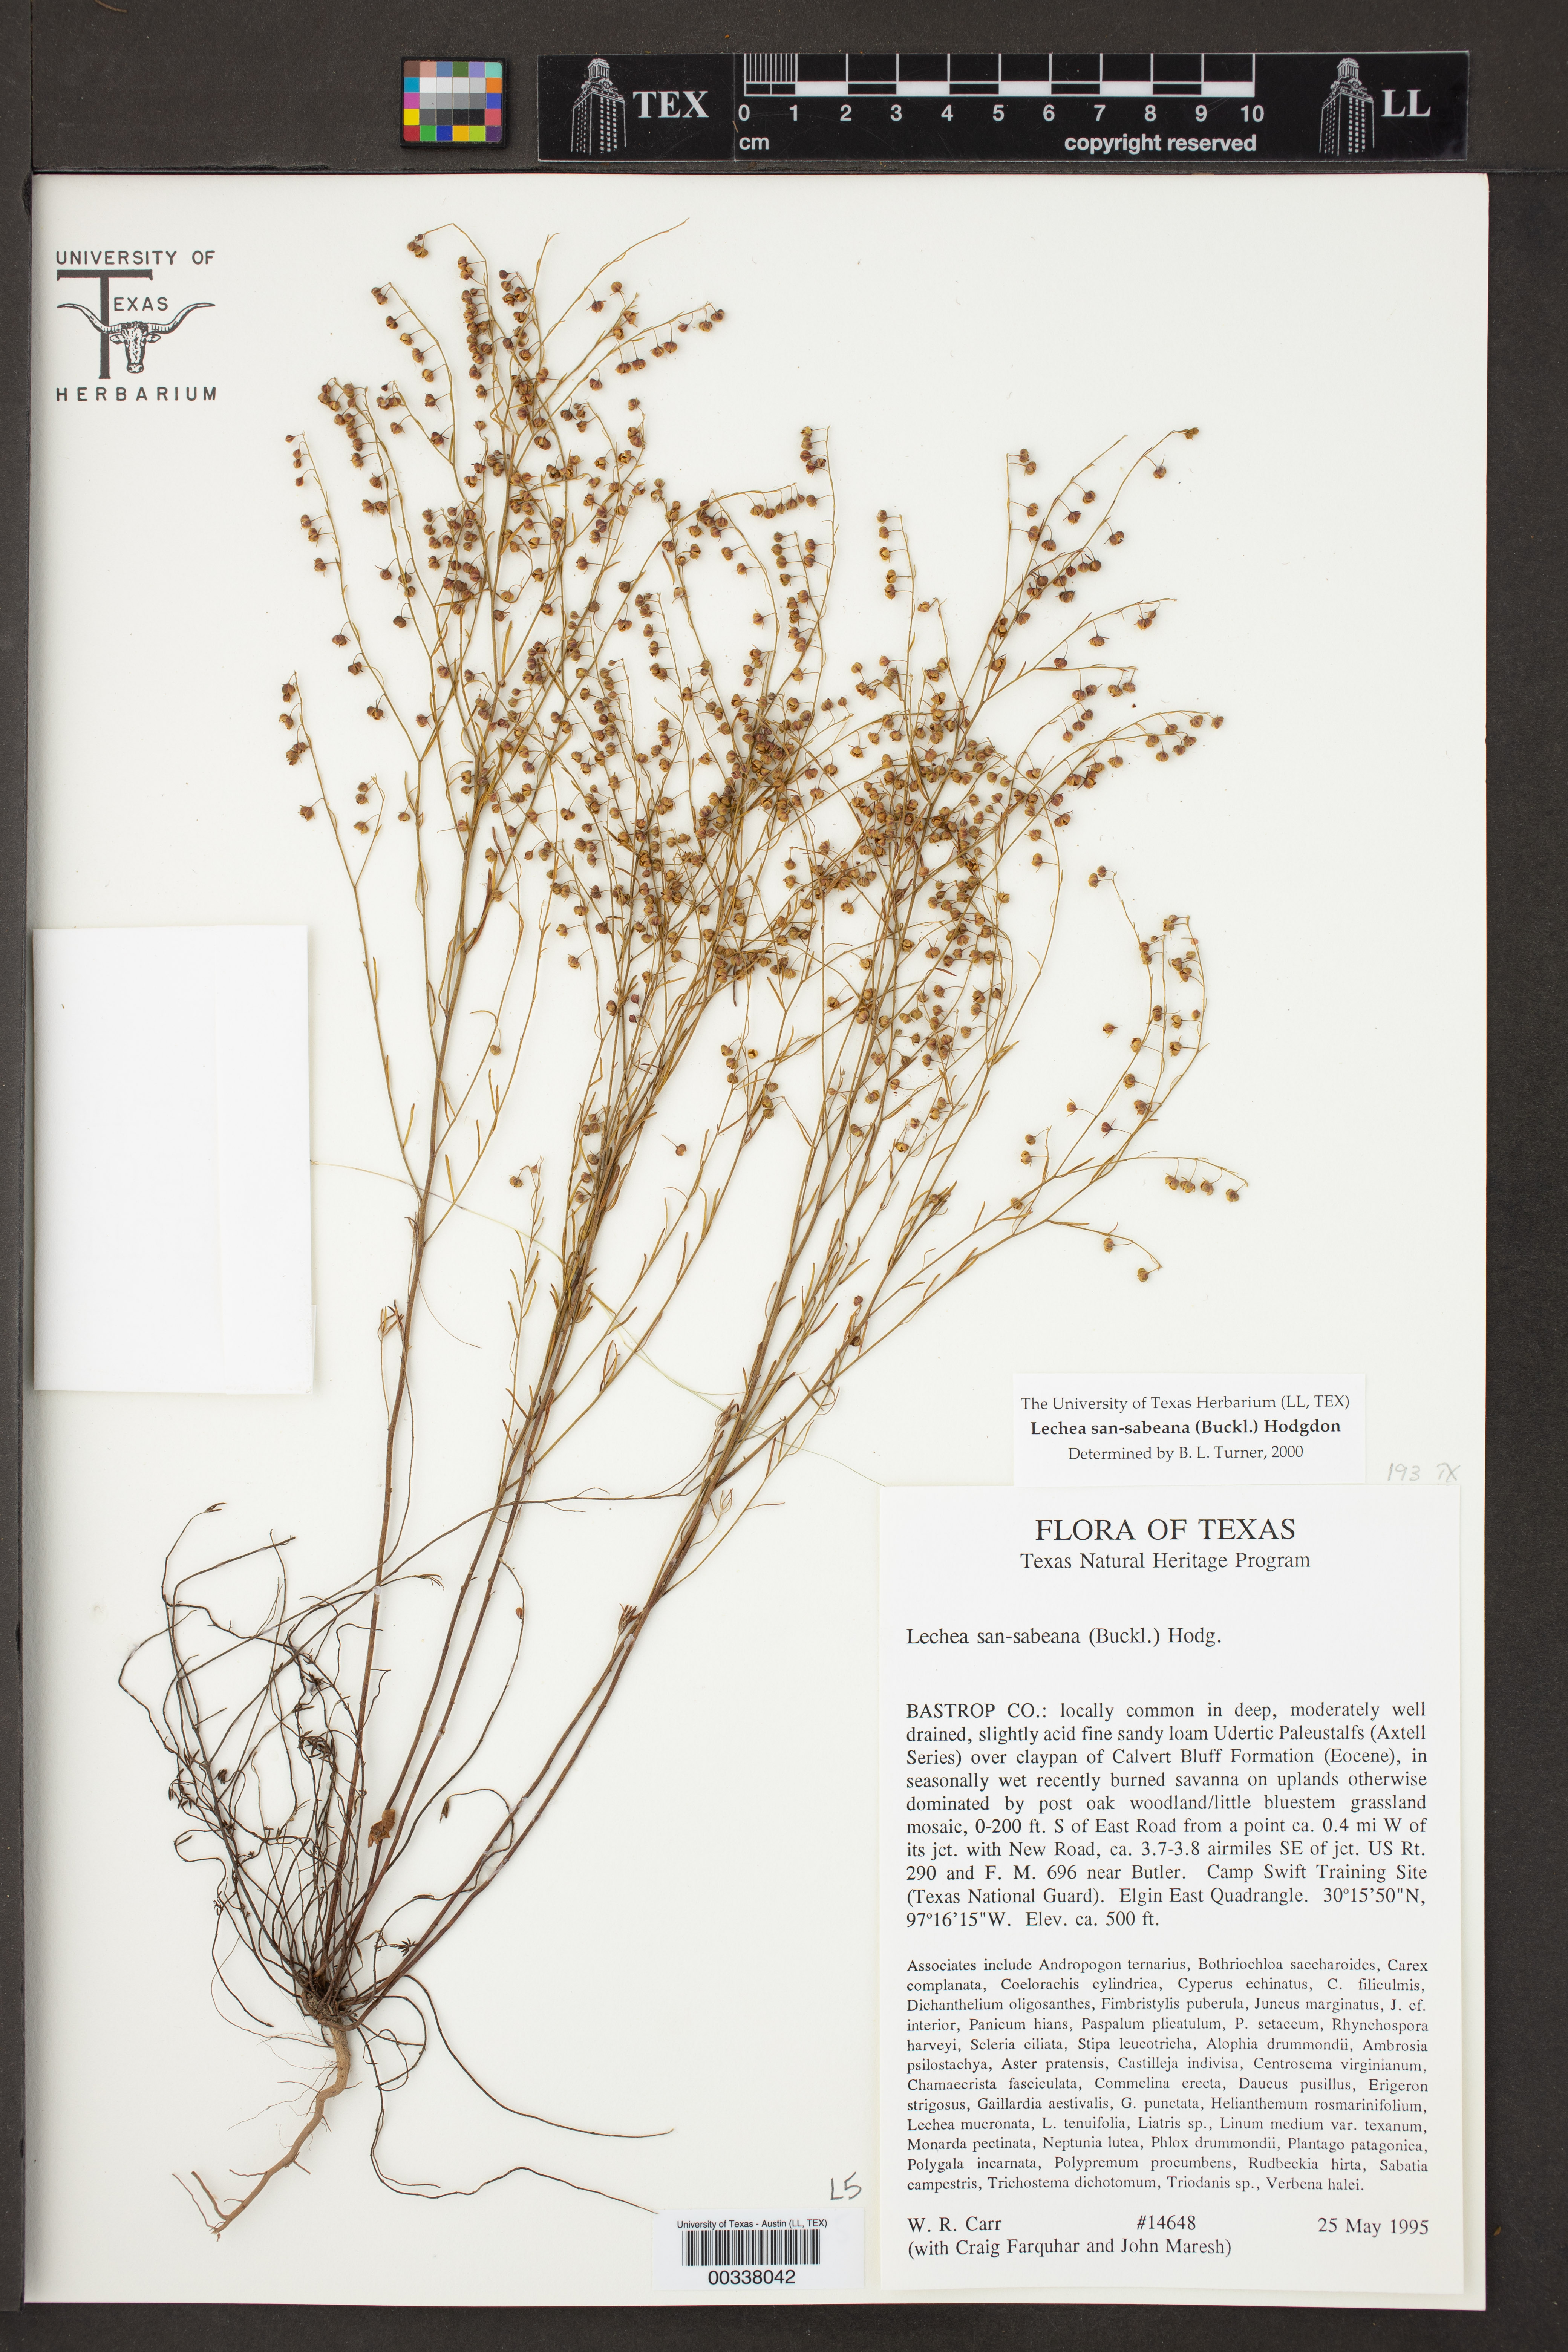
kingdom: Plantae
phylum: Tracheophyta
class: Magnoliopsida
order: Malvales
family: Cistaceae
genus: Lechea
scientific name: Lechea san-sabeana
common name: San saba pinweed
